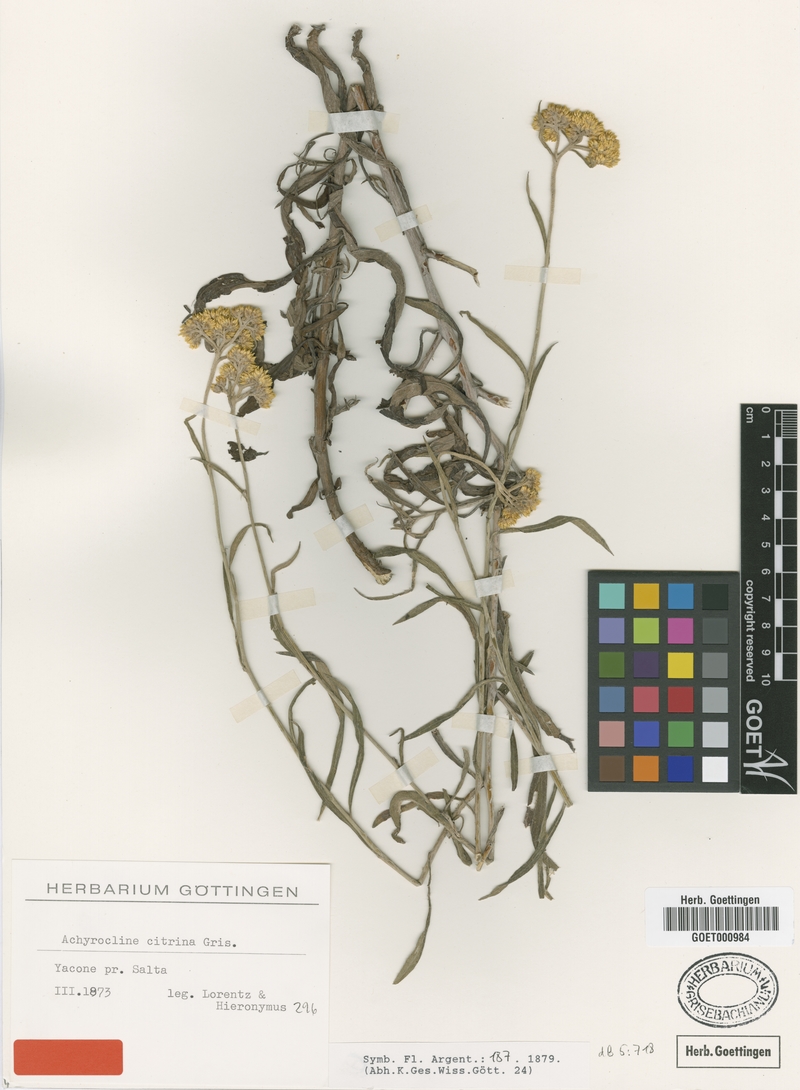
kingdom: Plantae
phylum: Tracheophyta
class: Magnoliopsida
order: Asterales
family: Asteraceae
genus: Achyrocline
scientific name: Achyrocline flaccida
